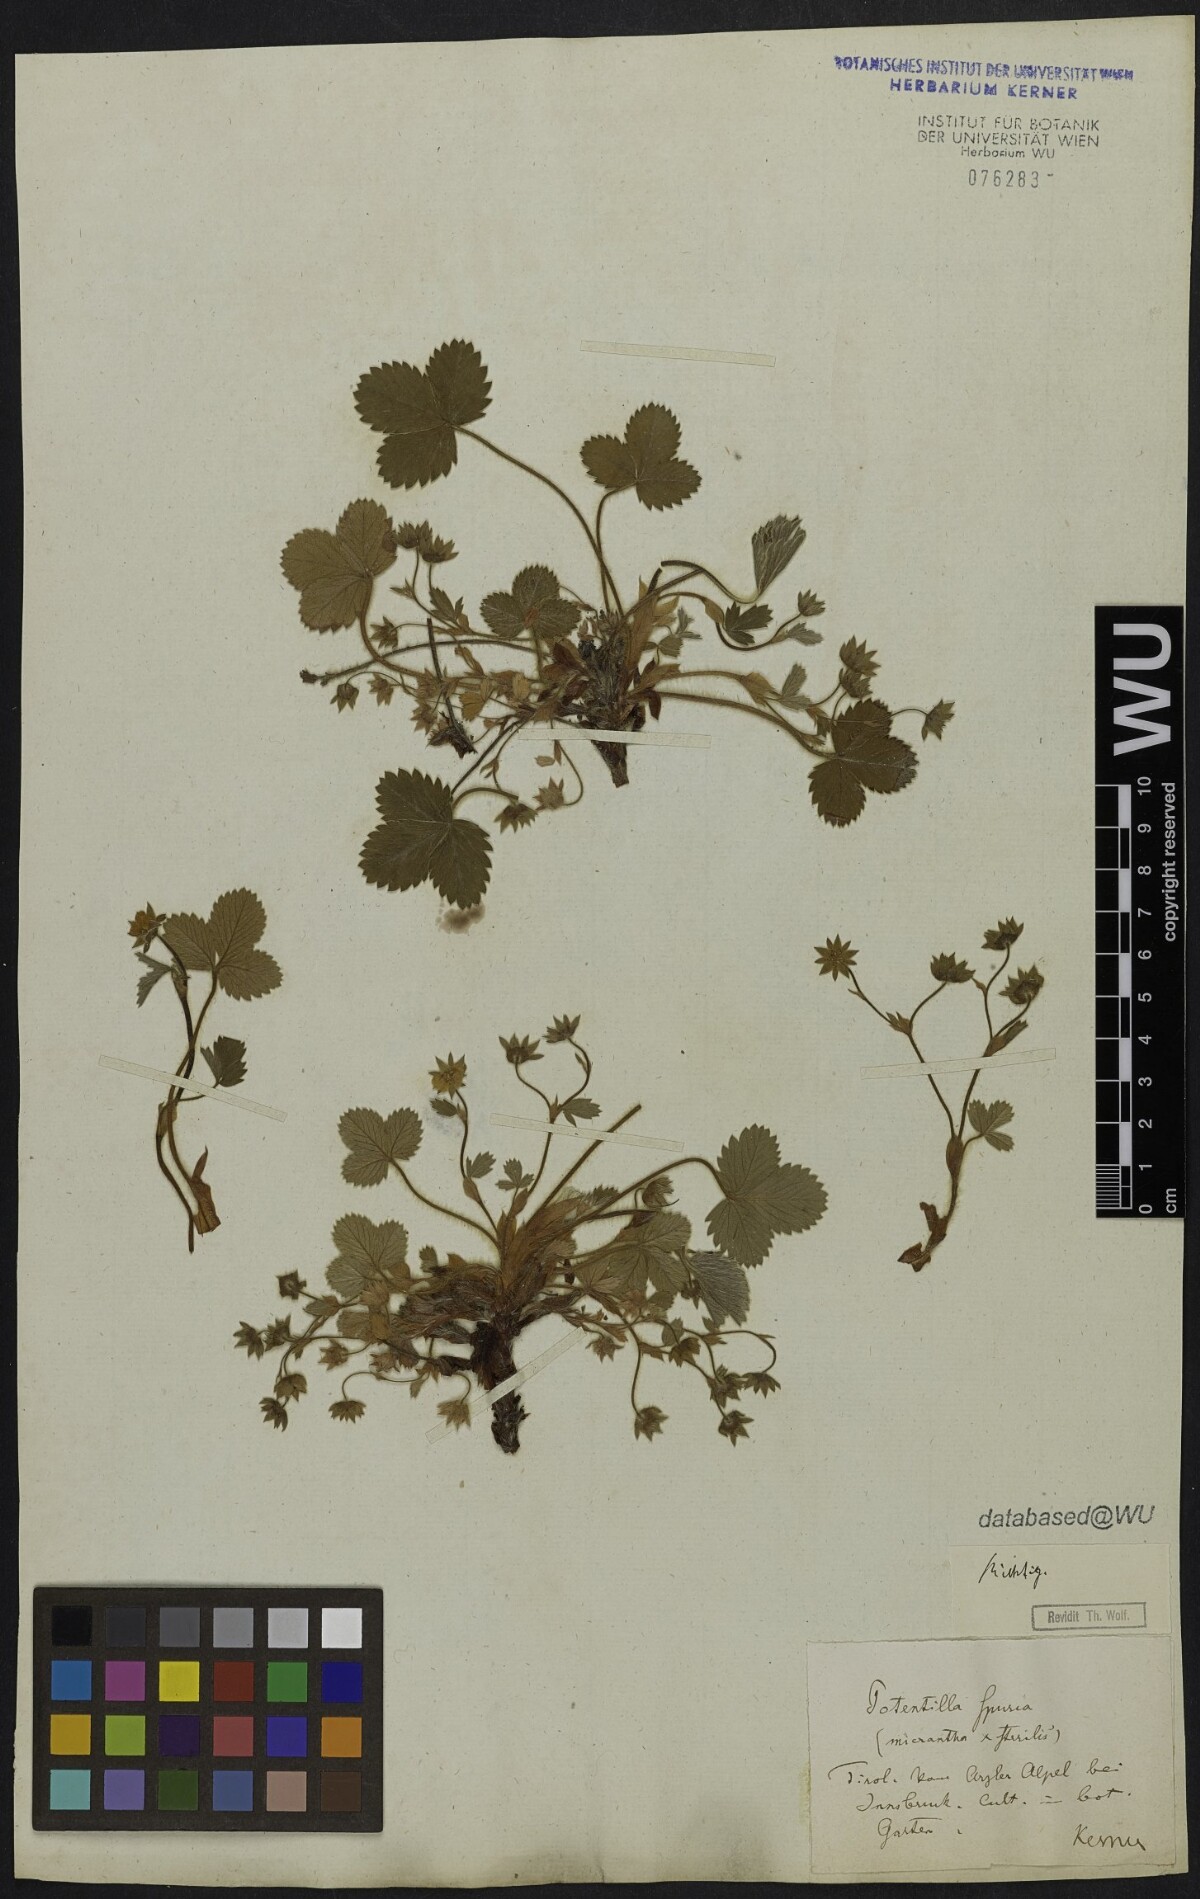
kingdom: Plantae
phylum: Tracheophyta
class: Magnoliopsida
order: Rosales
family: Rosaceae
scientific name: Rosaceae
